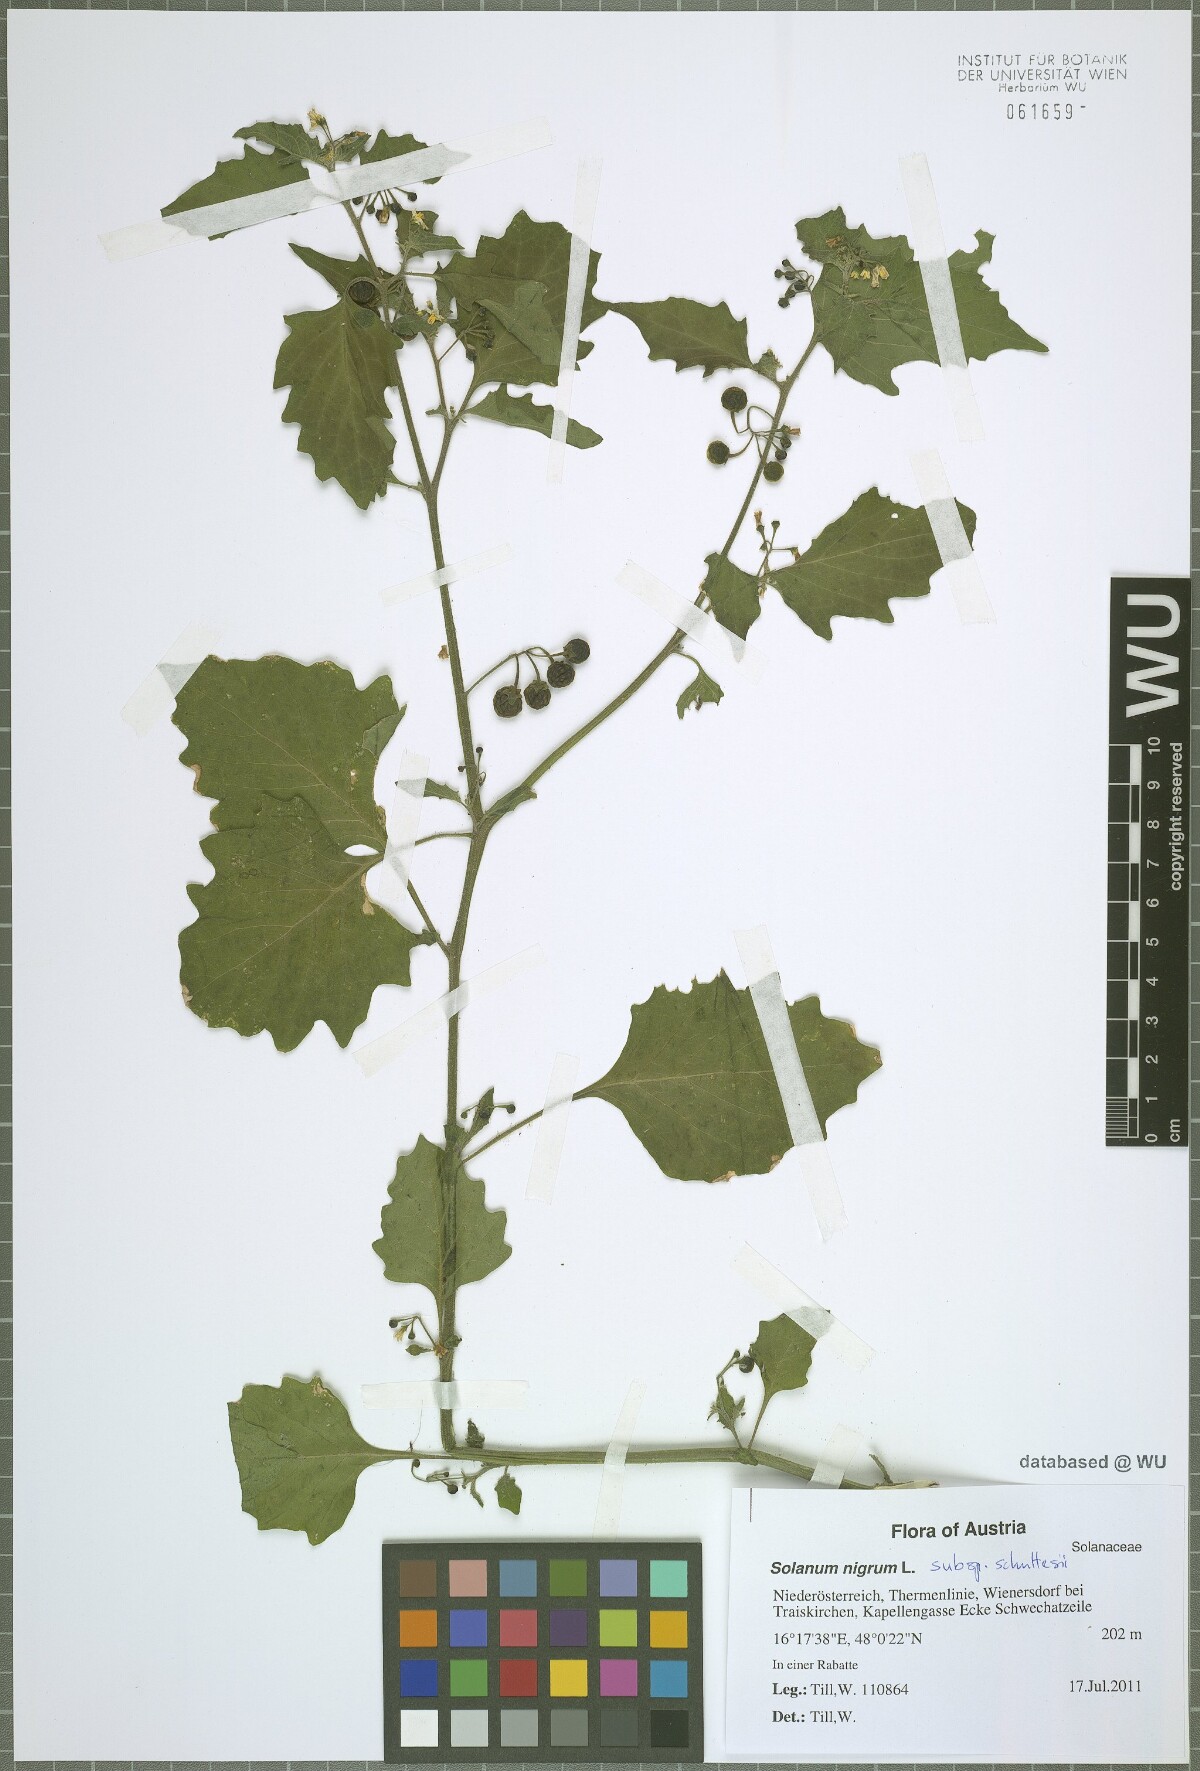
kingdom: Plantae
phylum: Tracheophyta
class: Magnoliopsida
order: Solanales
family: Solanaceae
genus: Solanum
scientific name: Solanum decipiens
